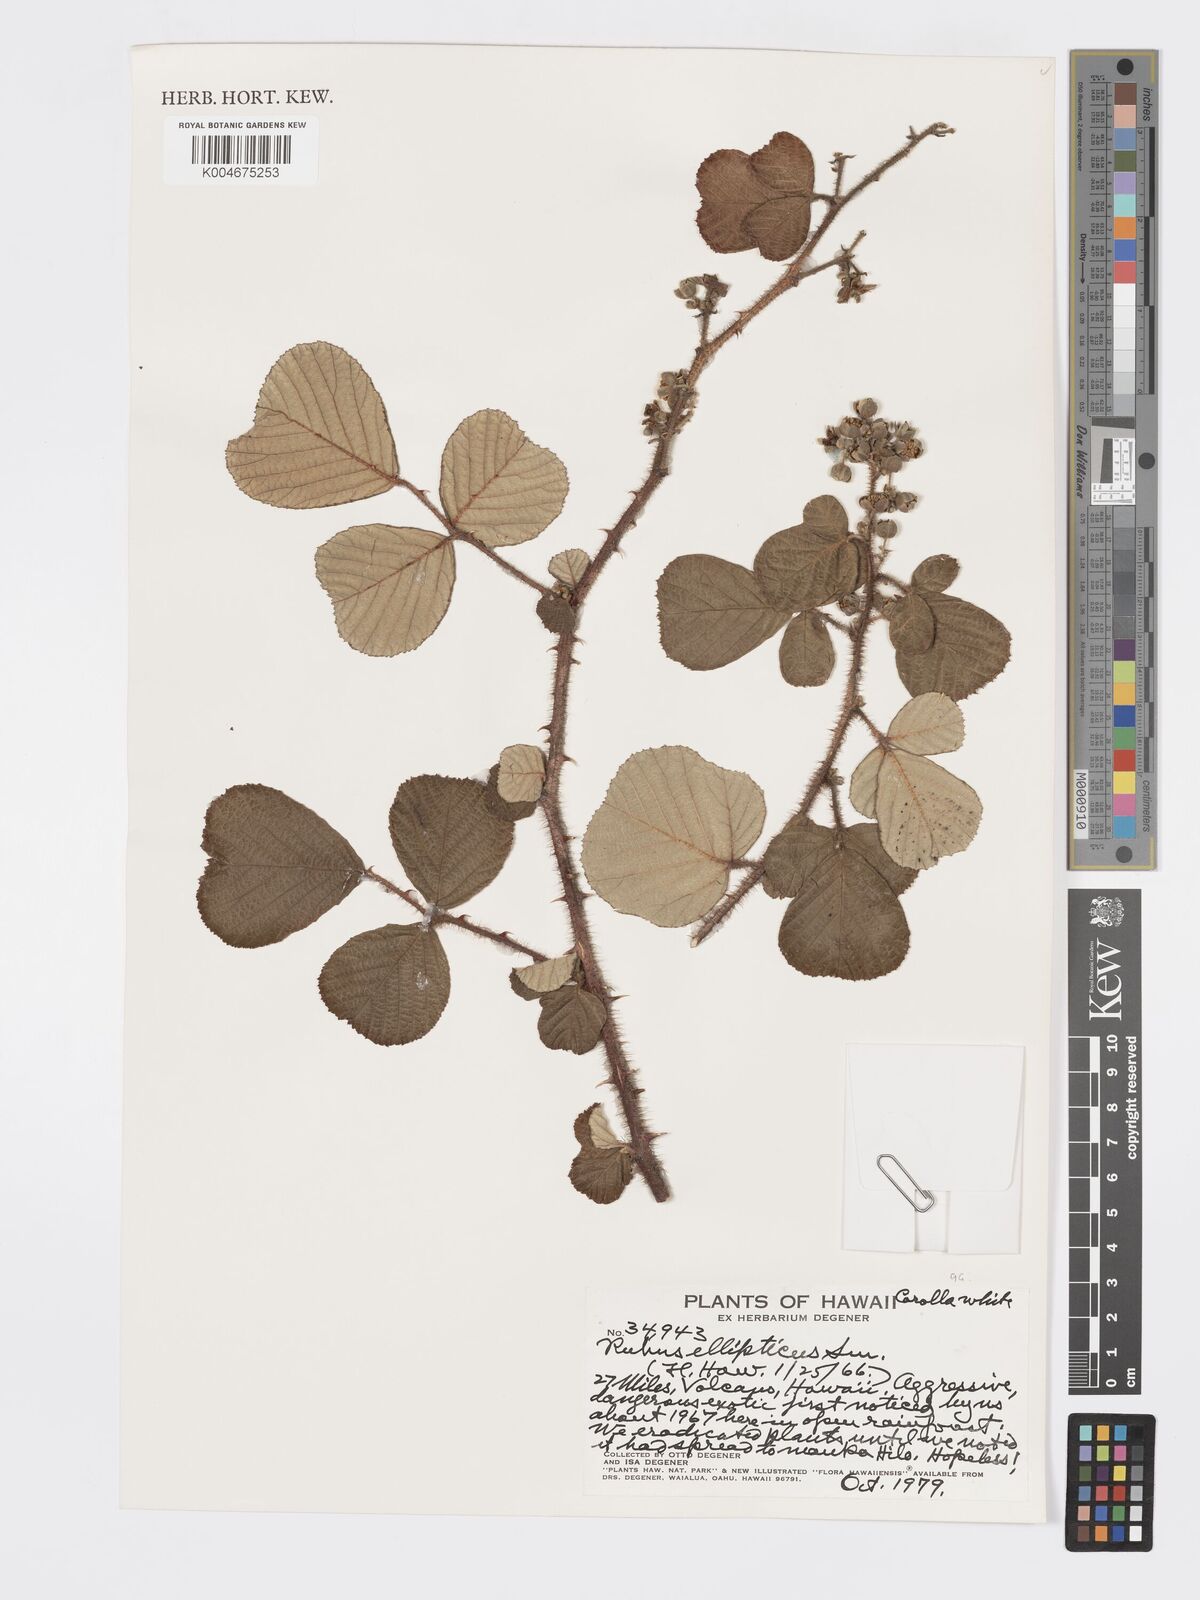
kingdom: Plantae
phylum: Tracheophyta
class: Magnoliopsida
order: Rosales
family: Rosaceae
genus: Rubus
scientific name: Rubus ellipticus
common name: Cheeseberry
